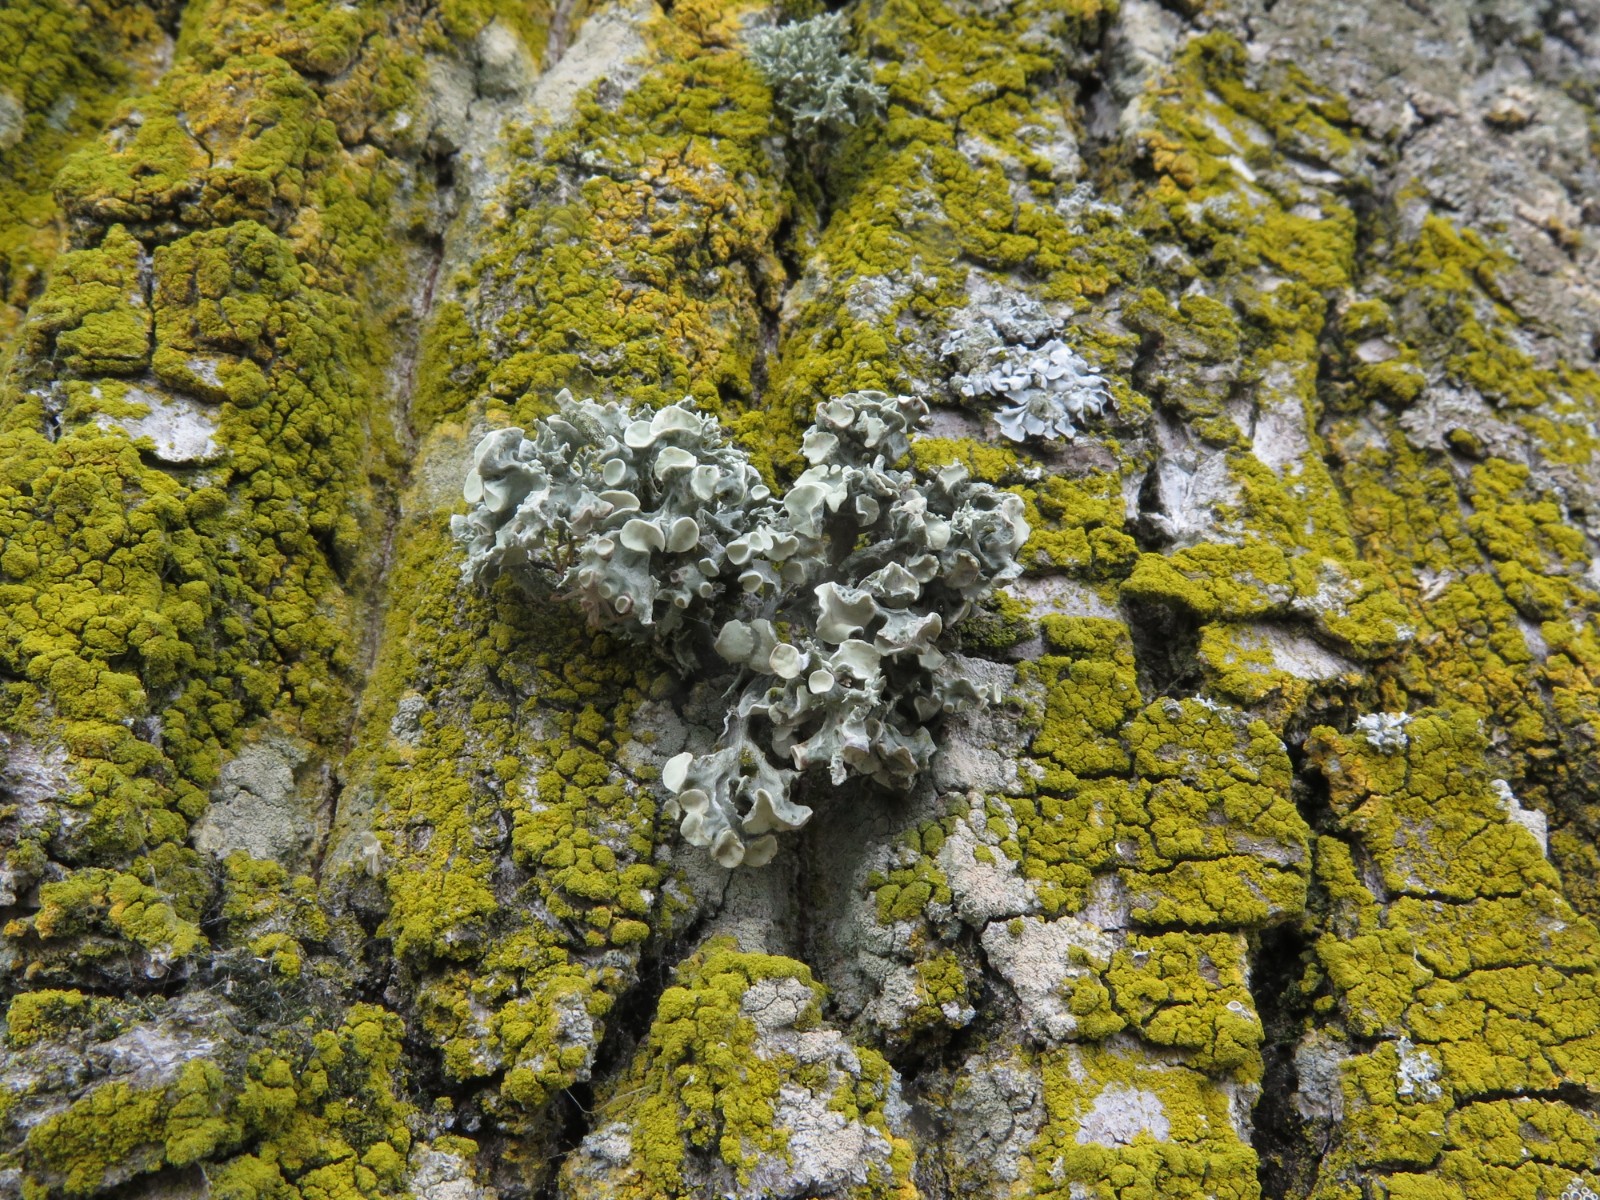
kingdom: Fungi
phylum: Ascomycota
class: Lecanoromycetes
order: Lecanorales
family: Ramalinaceae
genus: Ramalina
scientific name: Ramalina fastigiata
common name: tue-grenlav
